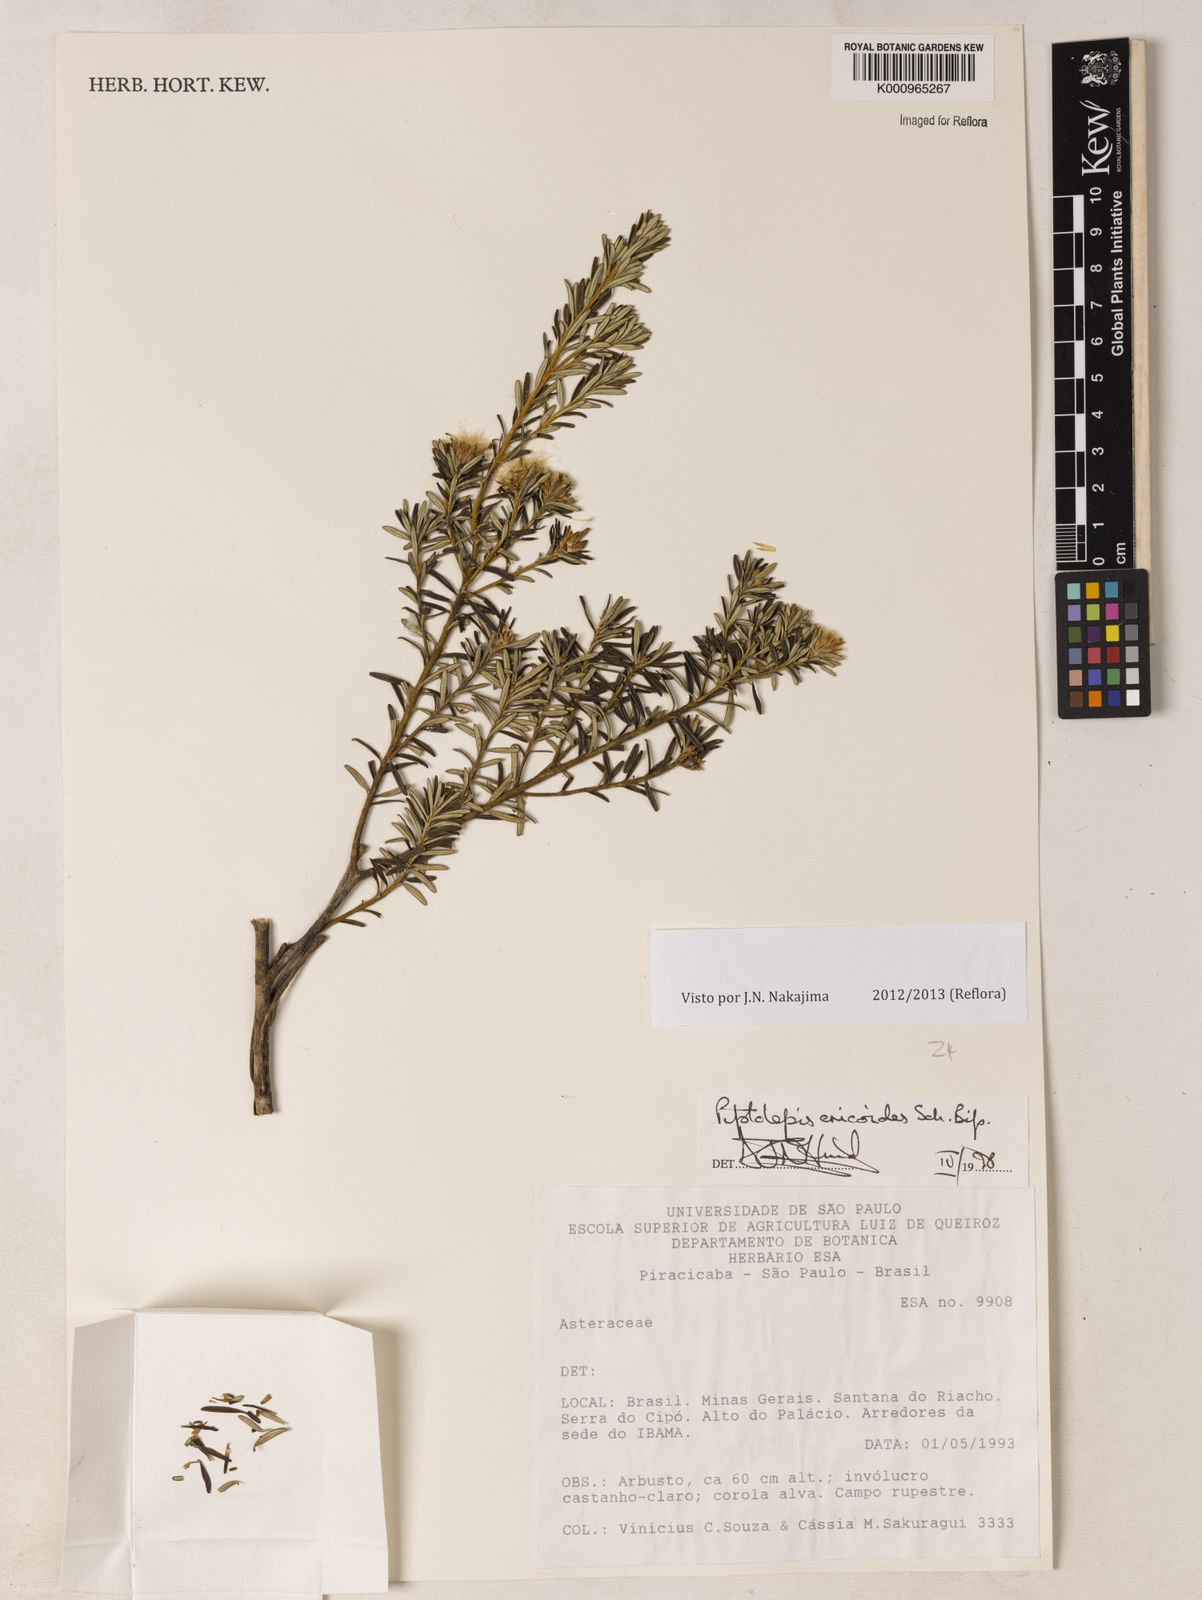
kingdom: Plantae
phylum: Tracheophyta
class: Magnoliopsida
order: Asterales
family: Asteraceae
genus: Piptolepis
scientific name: Piptolepis ericoides
